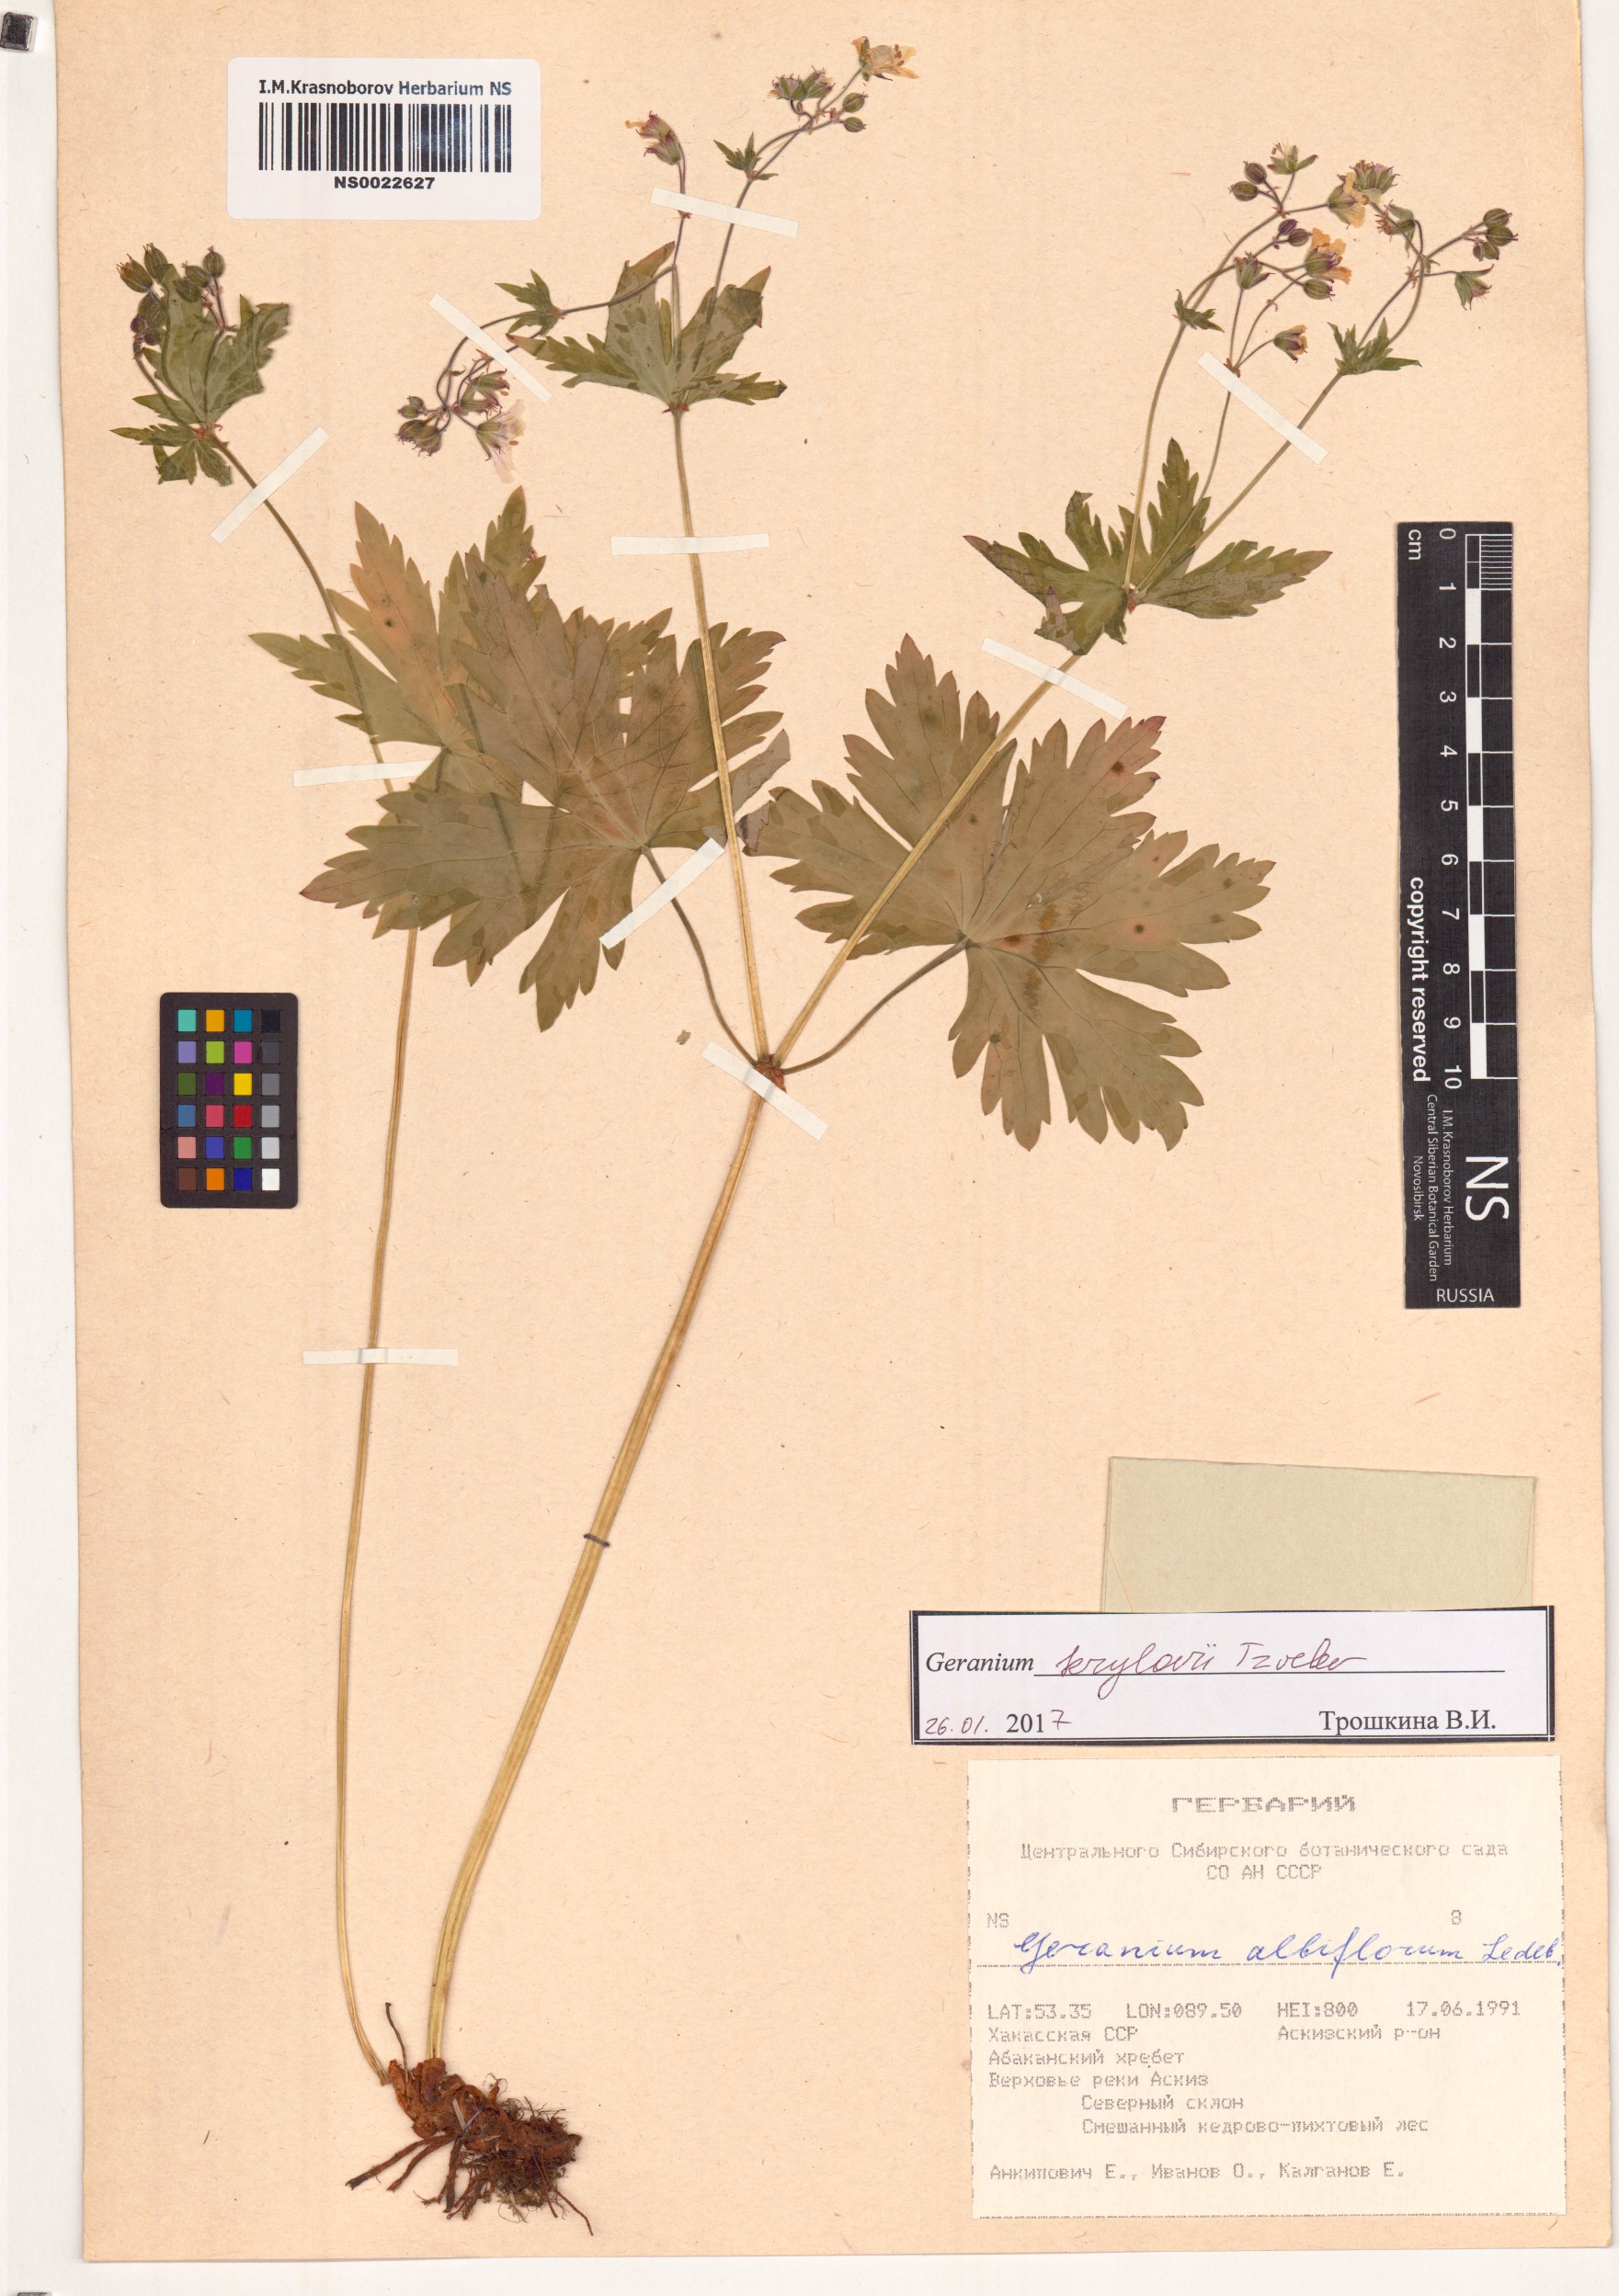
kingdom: Plantae
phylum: Tracheophyta
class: Magnoliopsida
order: Geraniales
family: Geraniaceae
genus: Geranium
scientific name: Geranium sylvaticum
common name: Wood crane's-bill
